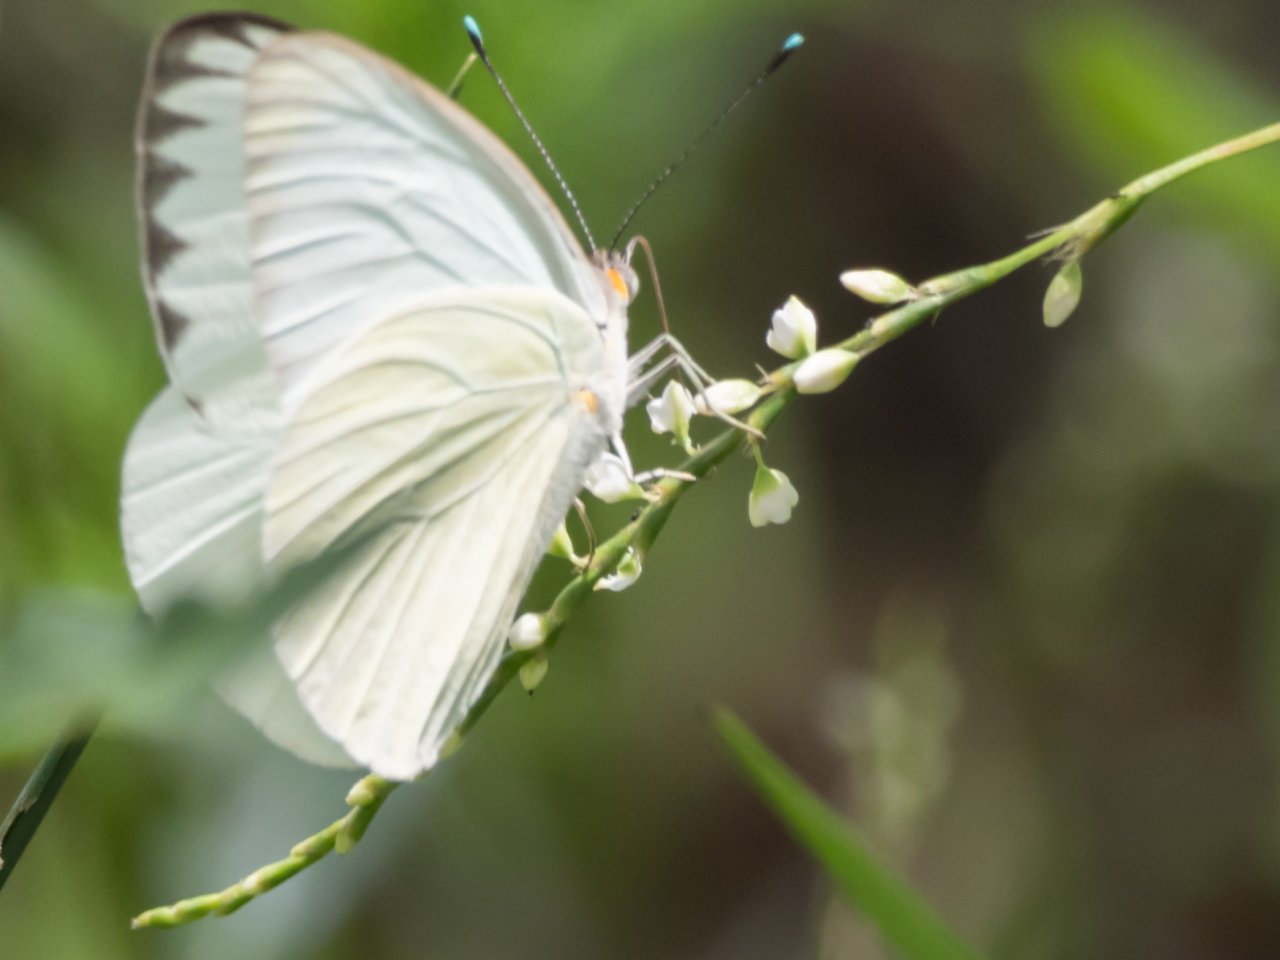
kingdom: Animalia
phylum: Arthropoda
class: Insecta
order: Lepidoptera
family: Pieridae
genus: Ascia
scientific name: Ascia monuste
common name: Great Southern White
